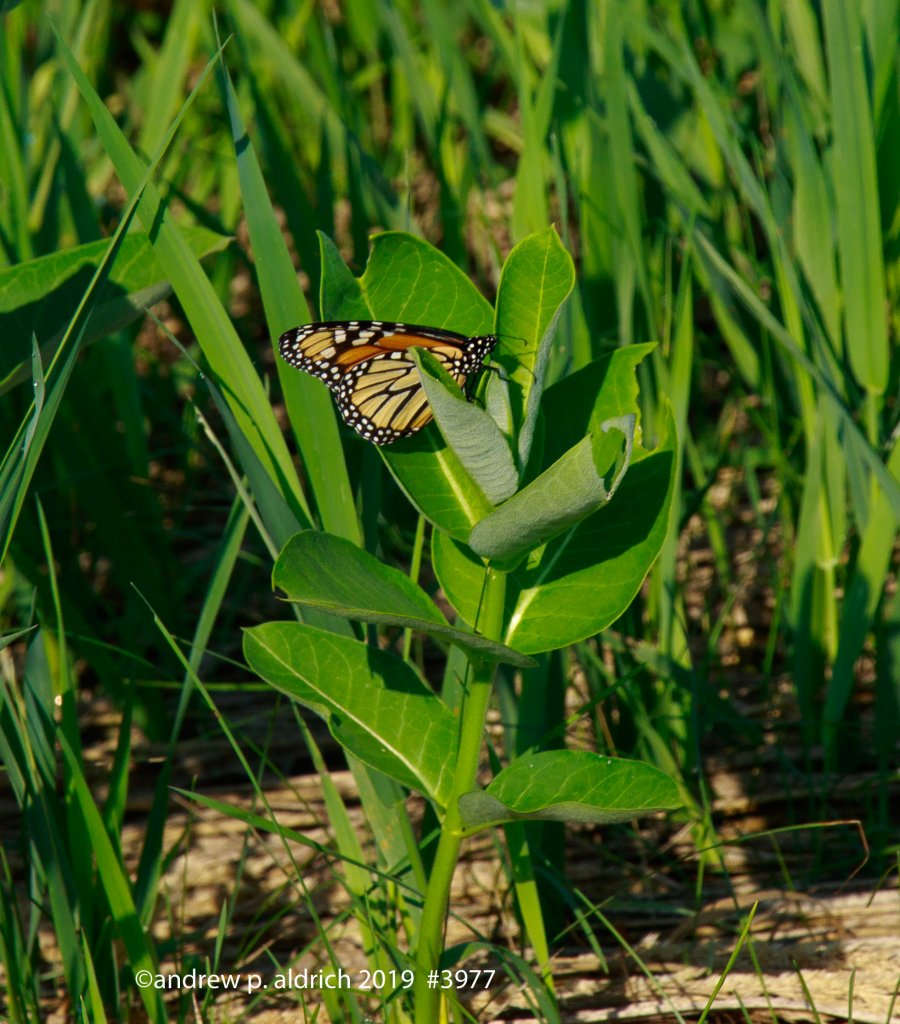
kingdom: Animalia
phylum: Arthropoda
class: Insecta
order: Lepidoptera
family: Nymphalidae
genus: Danaus
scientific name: Danaus plexippus
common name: Monarch
